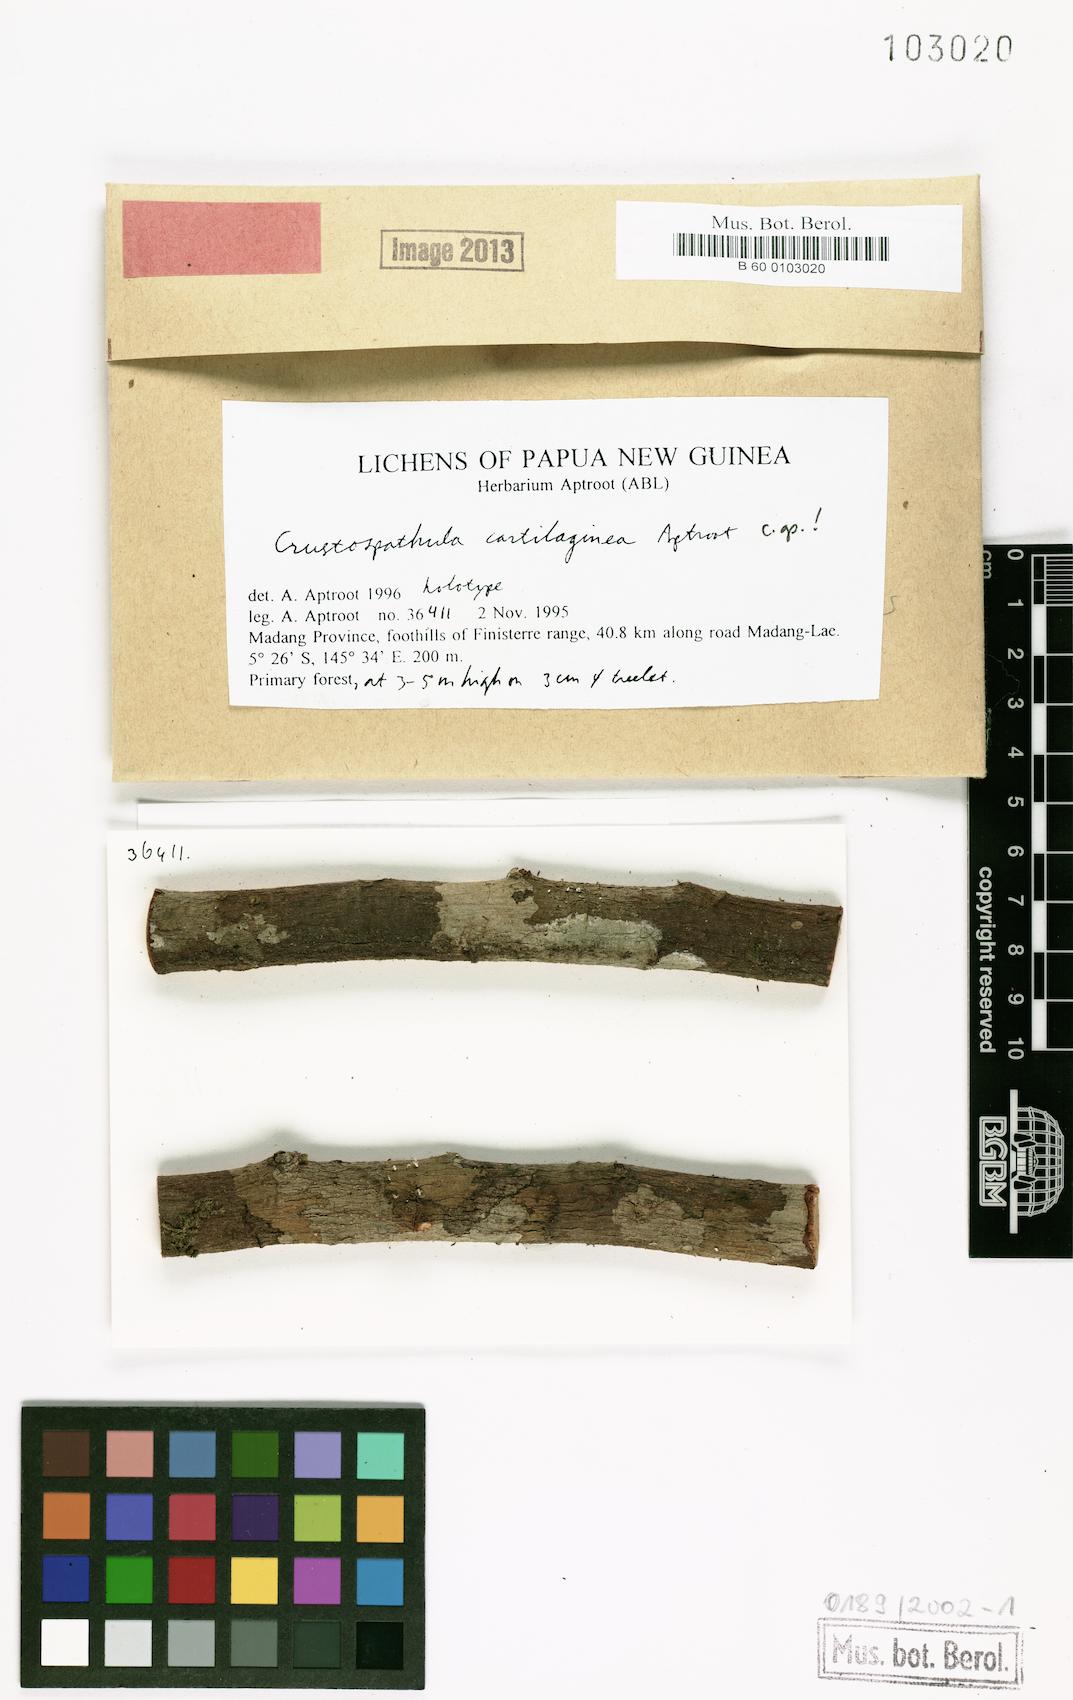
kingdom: Fungi
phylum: Ascomycota
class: Lecanoromycetes
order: Lecanorales
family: Ramalinaceae
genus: Crustospathula
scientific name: Crustospathula cartilaginea
